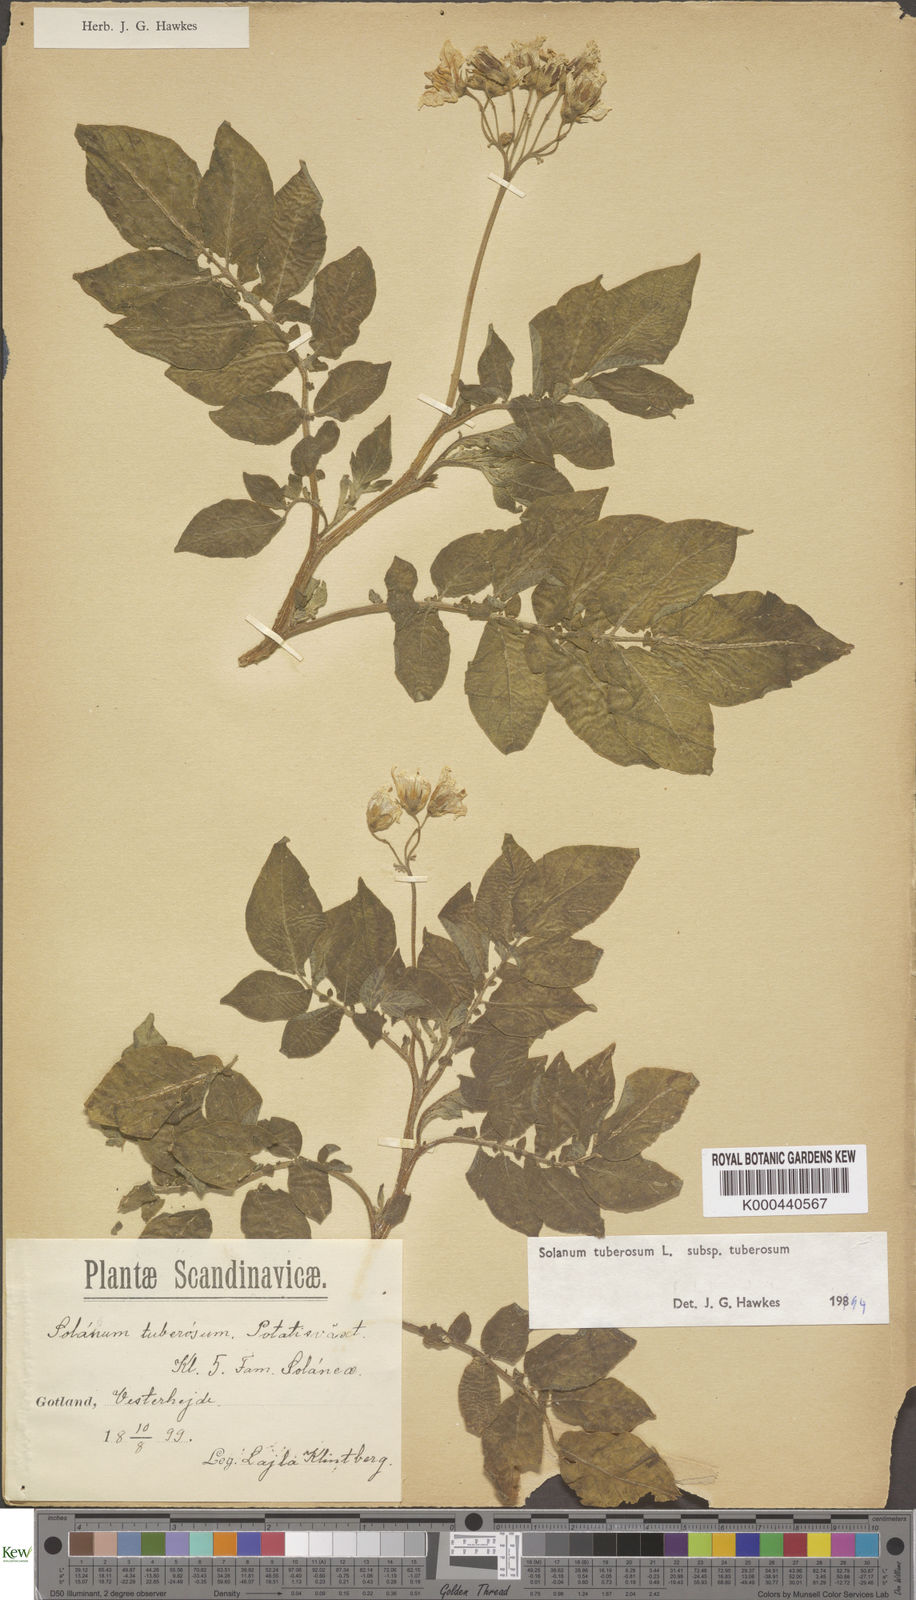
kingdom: Plantae
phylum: Tracheophyta
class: Magnoliopsida
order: Solanales
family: Solanaceae
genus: Solanum
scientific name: Solanum tuberosum
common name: Potato
